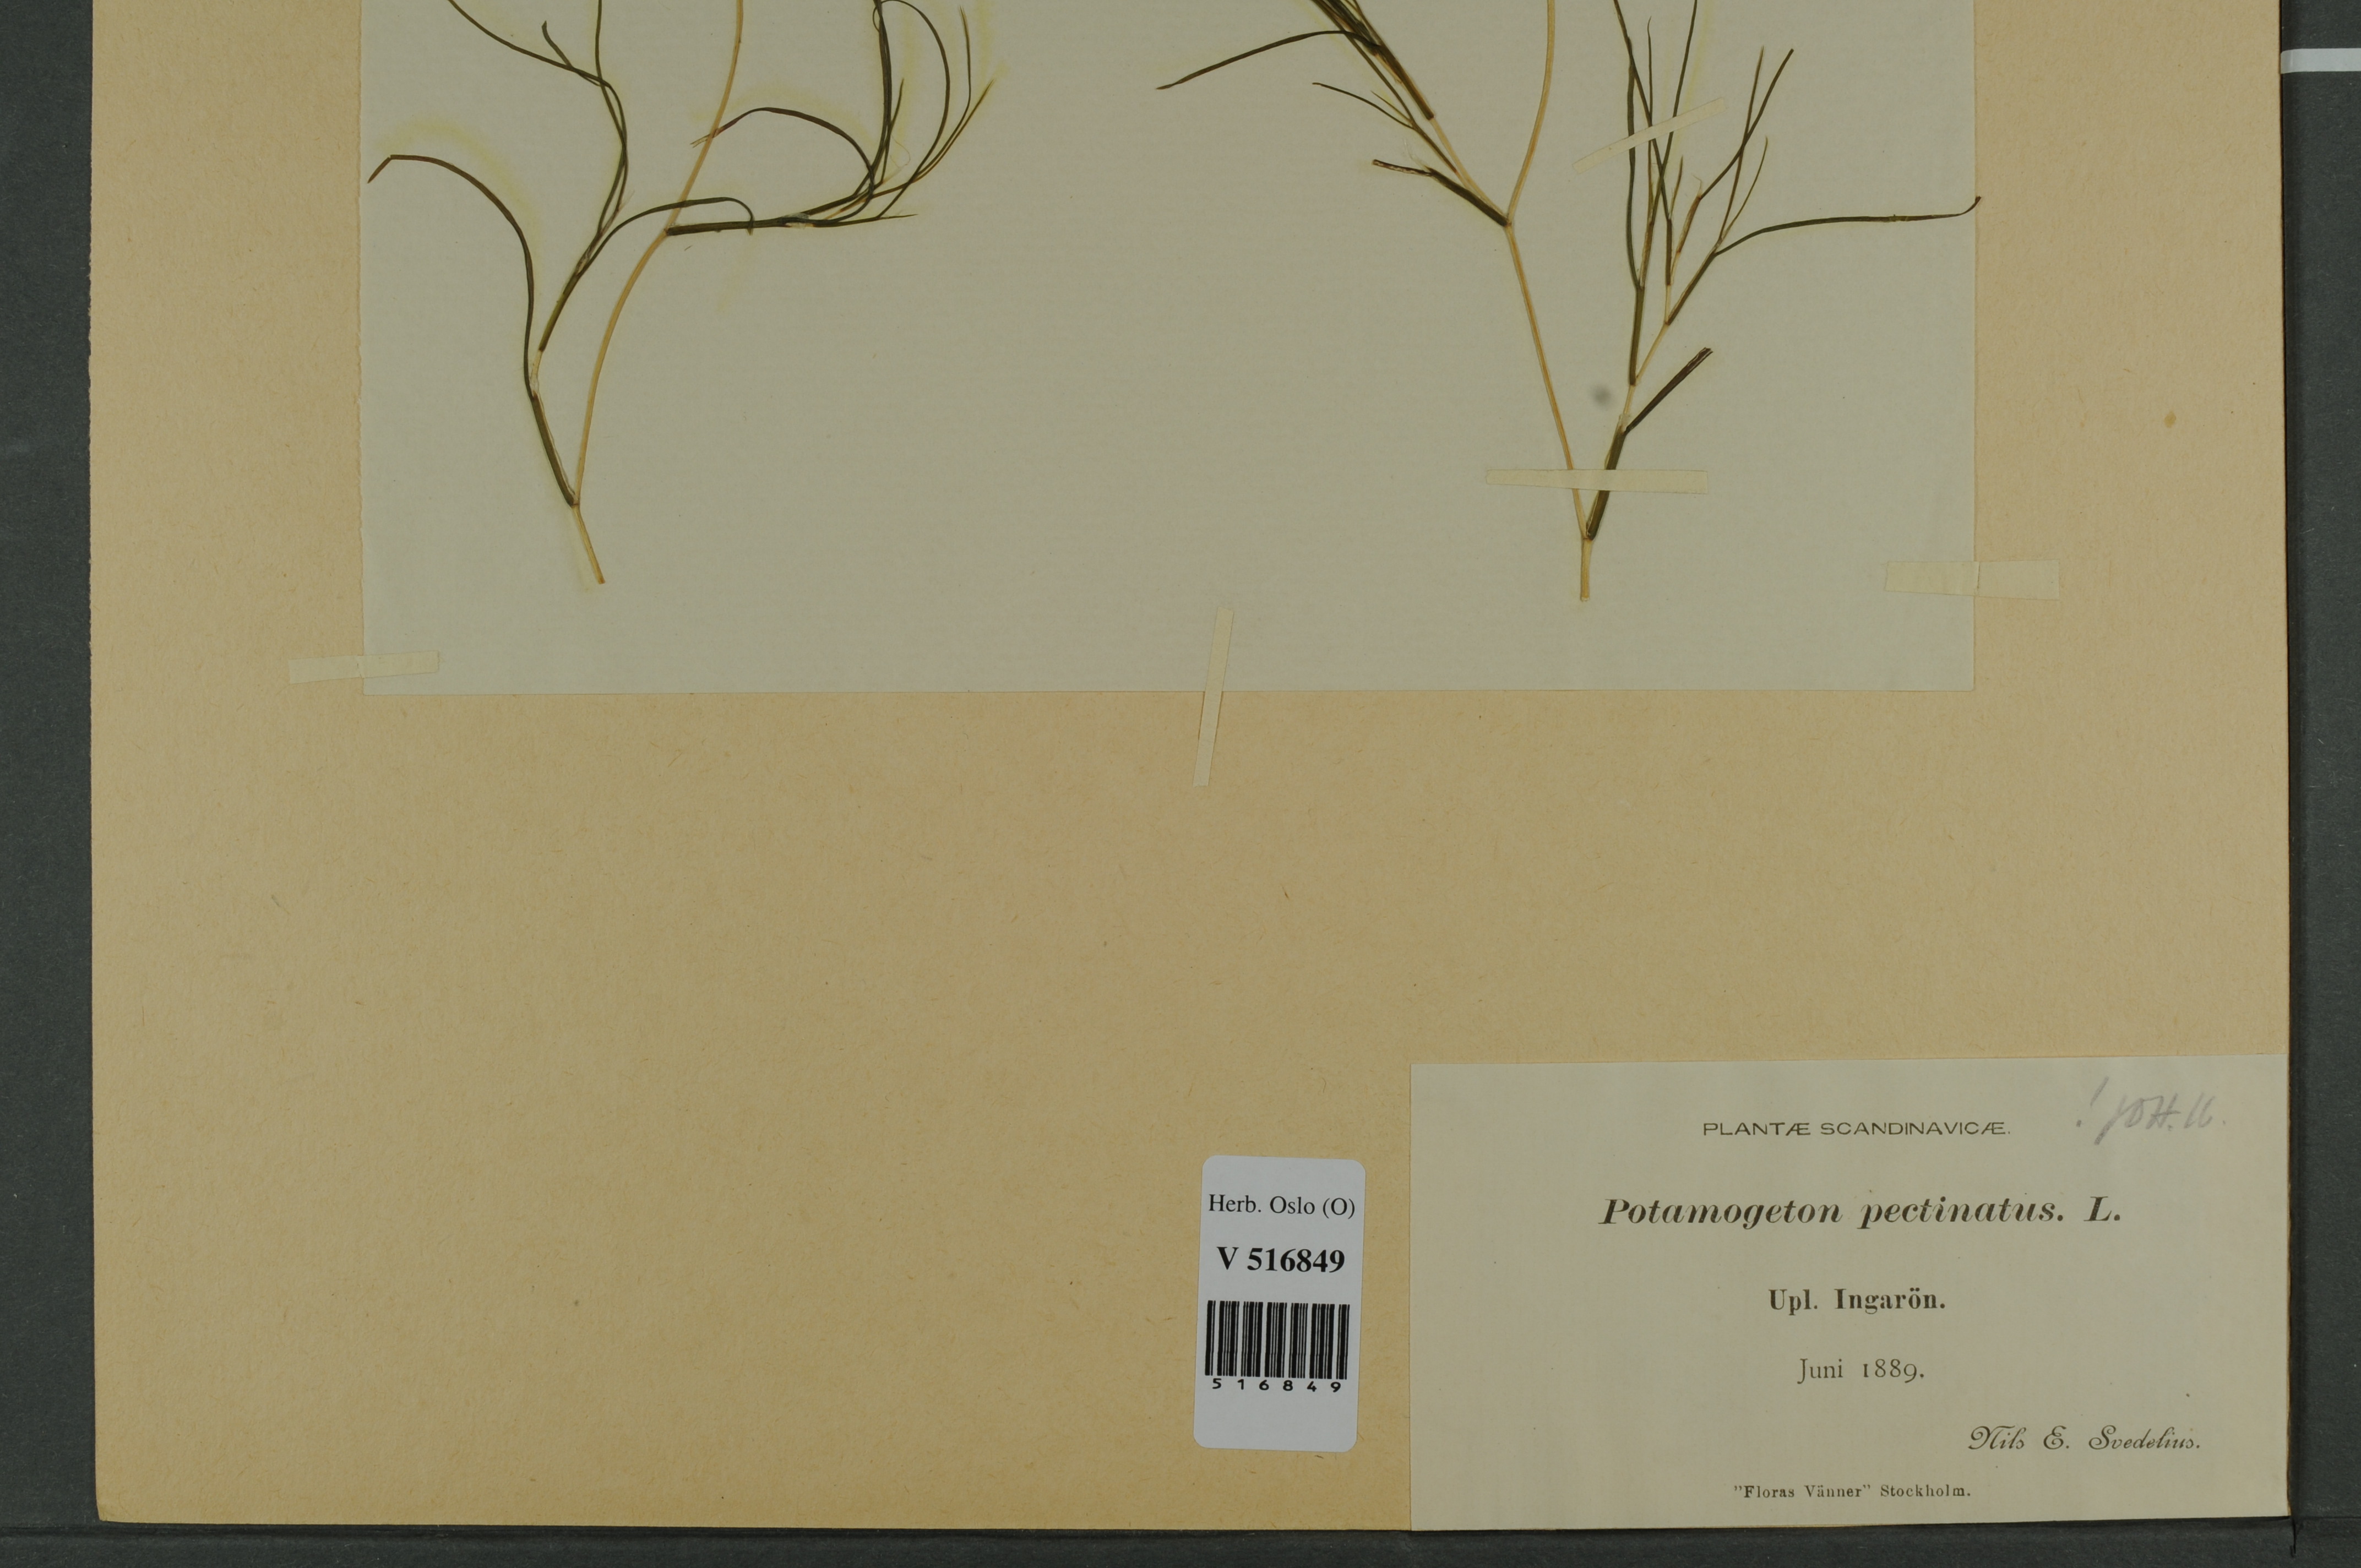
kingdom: Plantae
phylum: Tracheophyta
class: Liliopsida
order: Alismatales
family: Potamogetonaceae
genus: Stuckenia
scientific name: Stuckenia pectinata
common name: Sago pondweed
